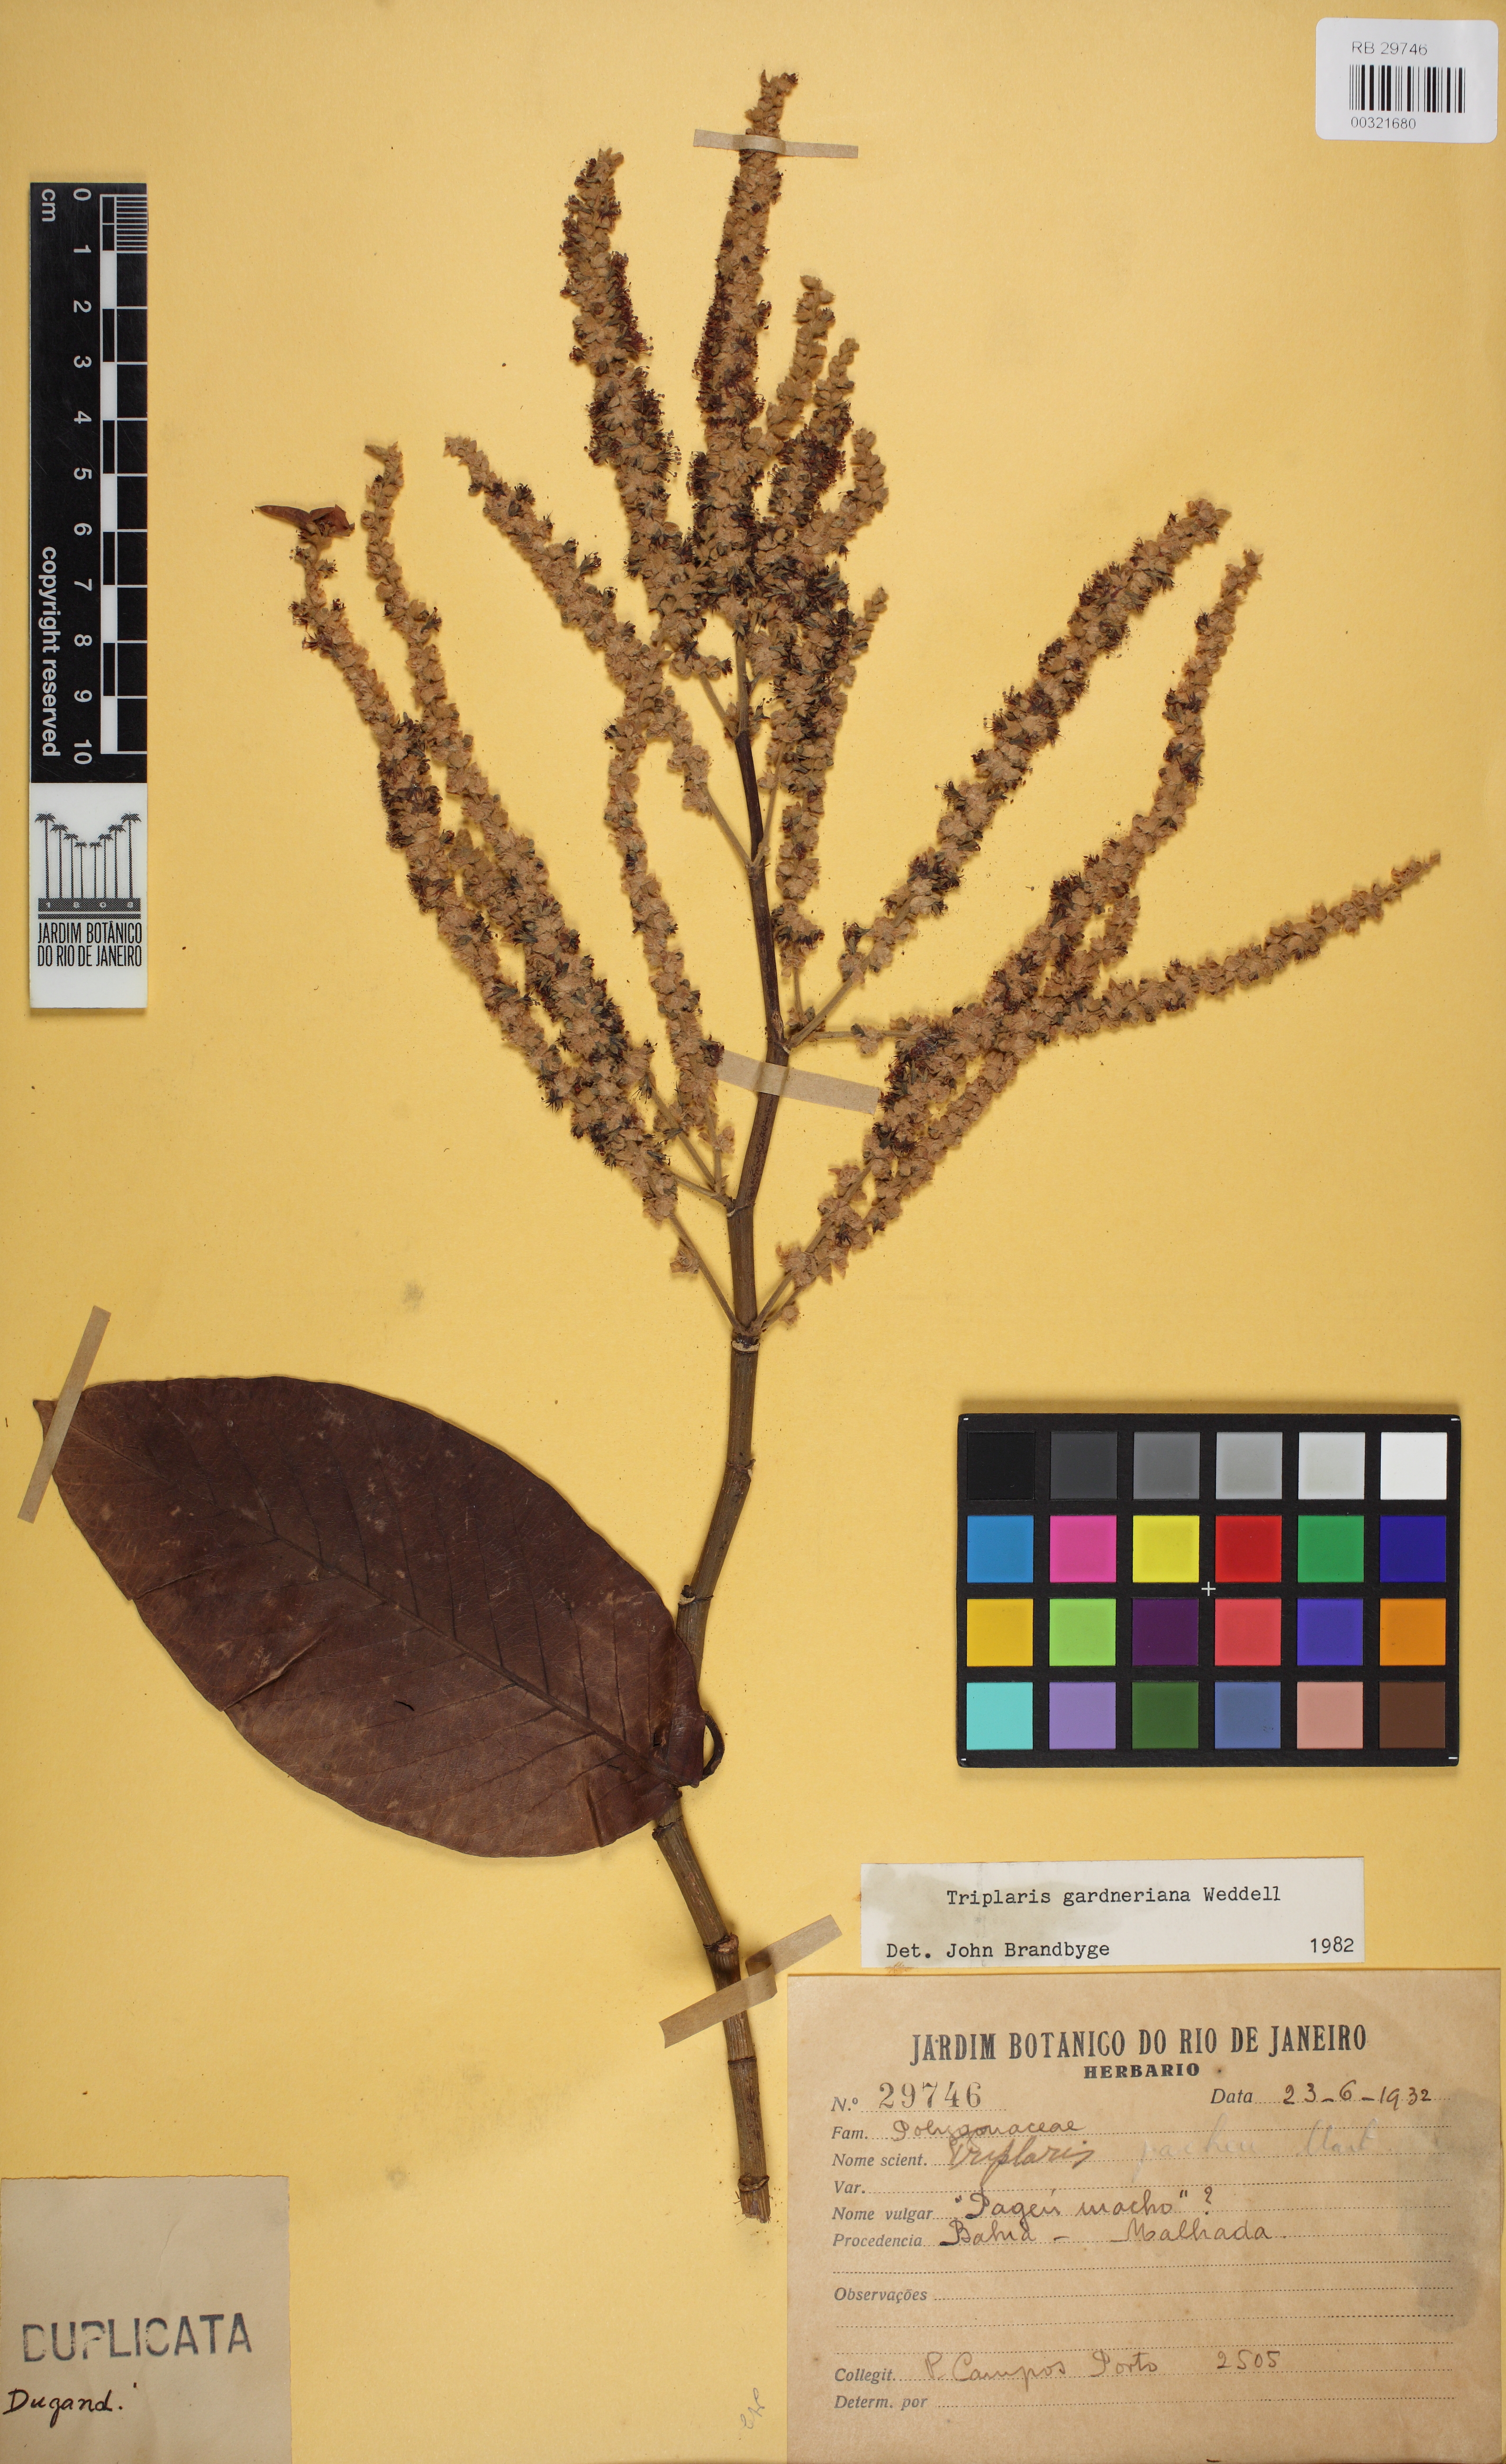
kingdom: Plantae
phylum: Tracheophyta
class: Magnoliopsida
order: Caryophyllales
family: Polygonaceae
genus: Triplaris
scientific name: Triplaris gardneriana
